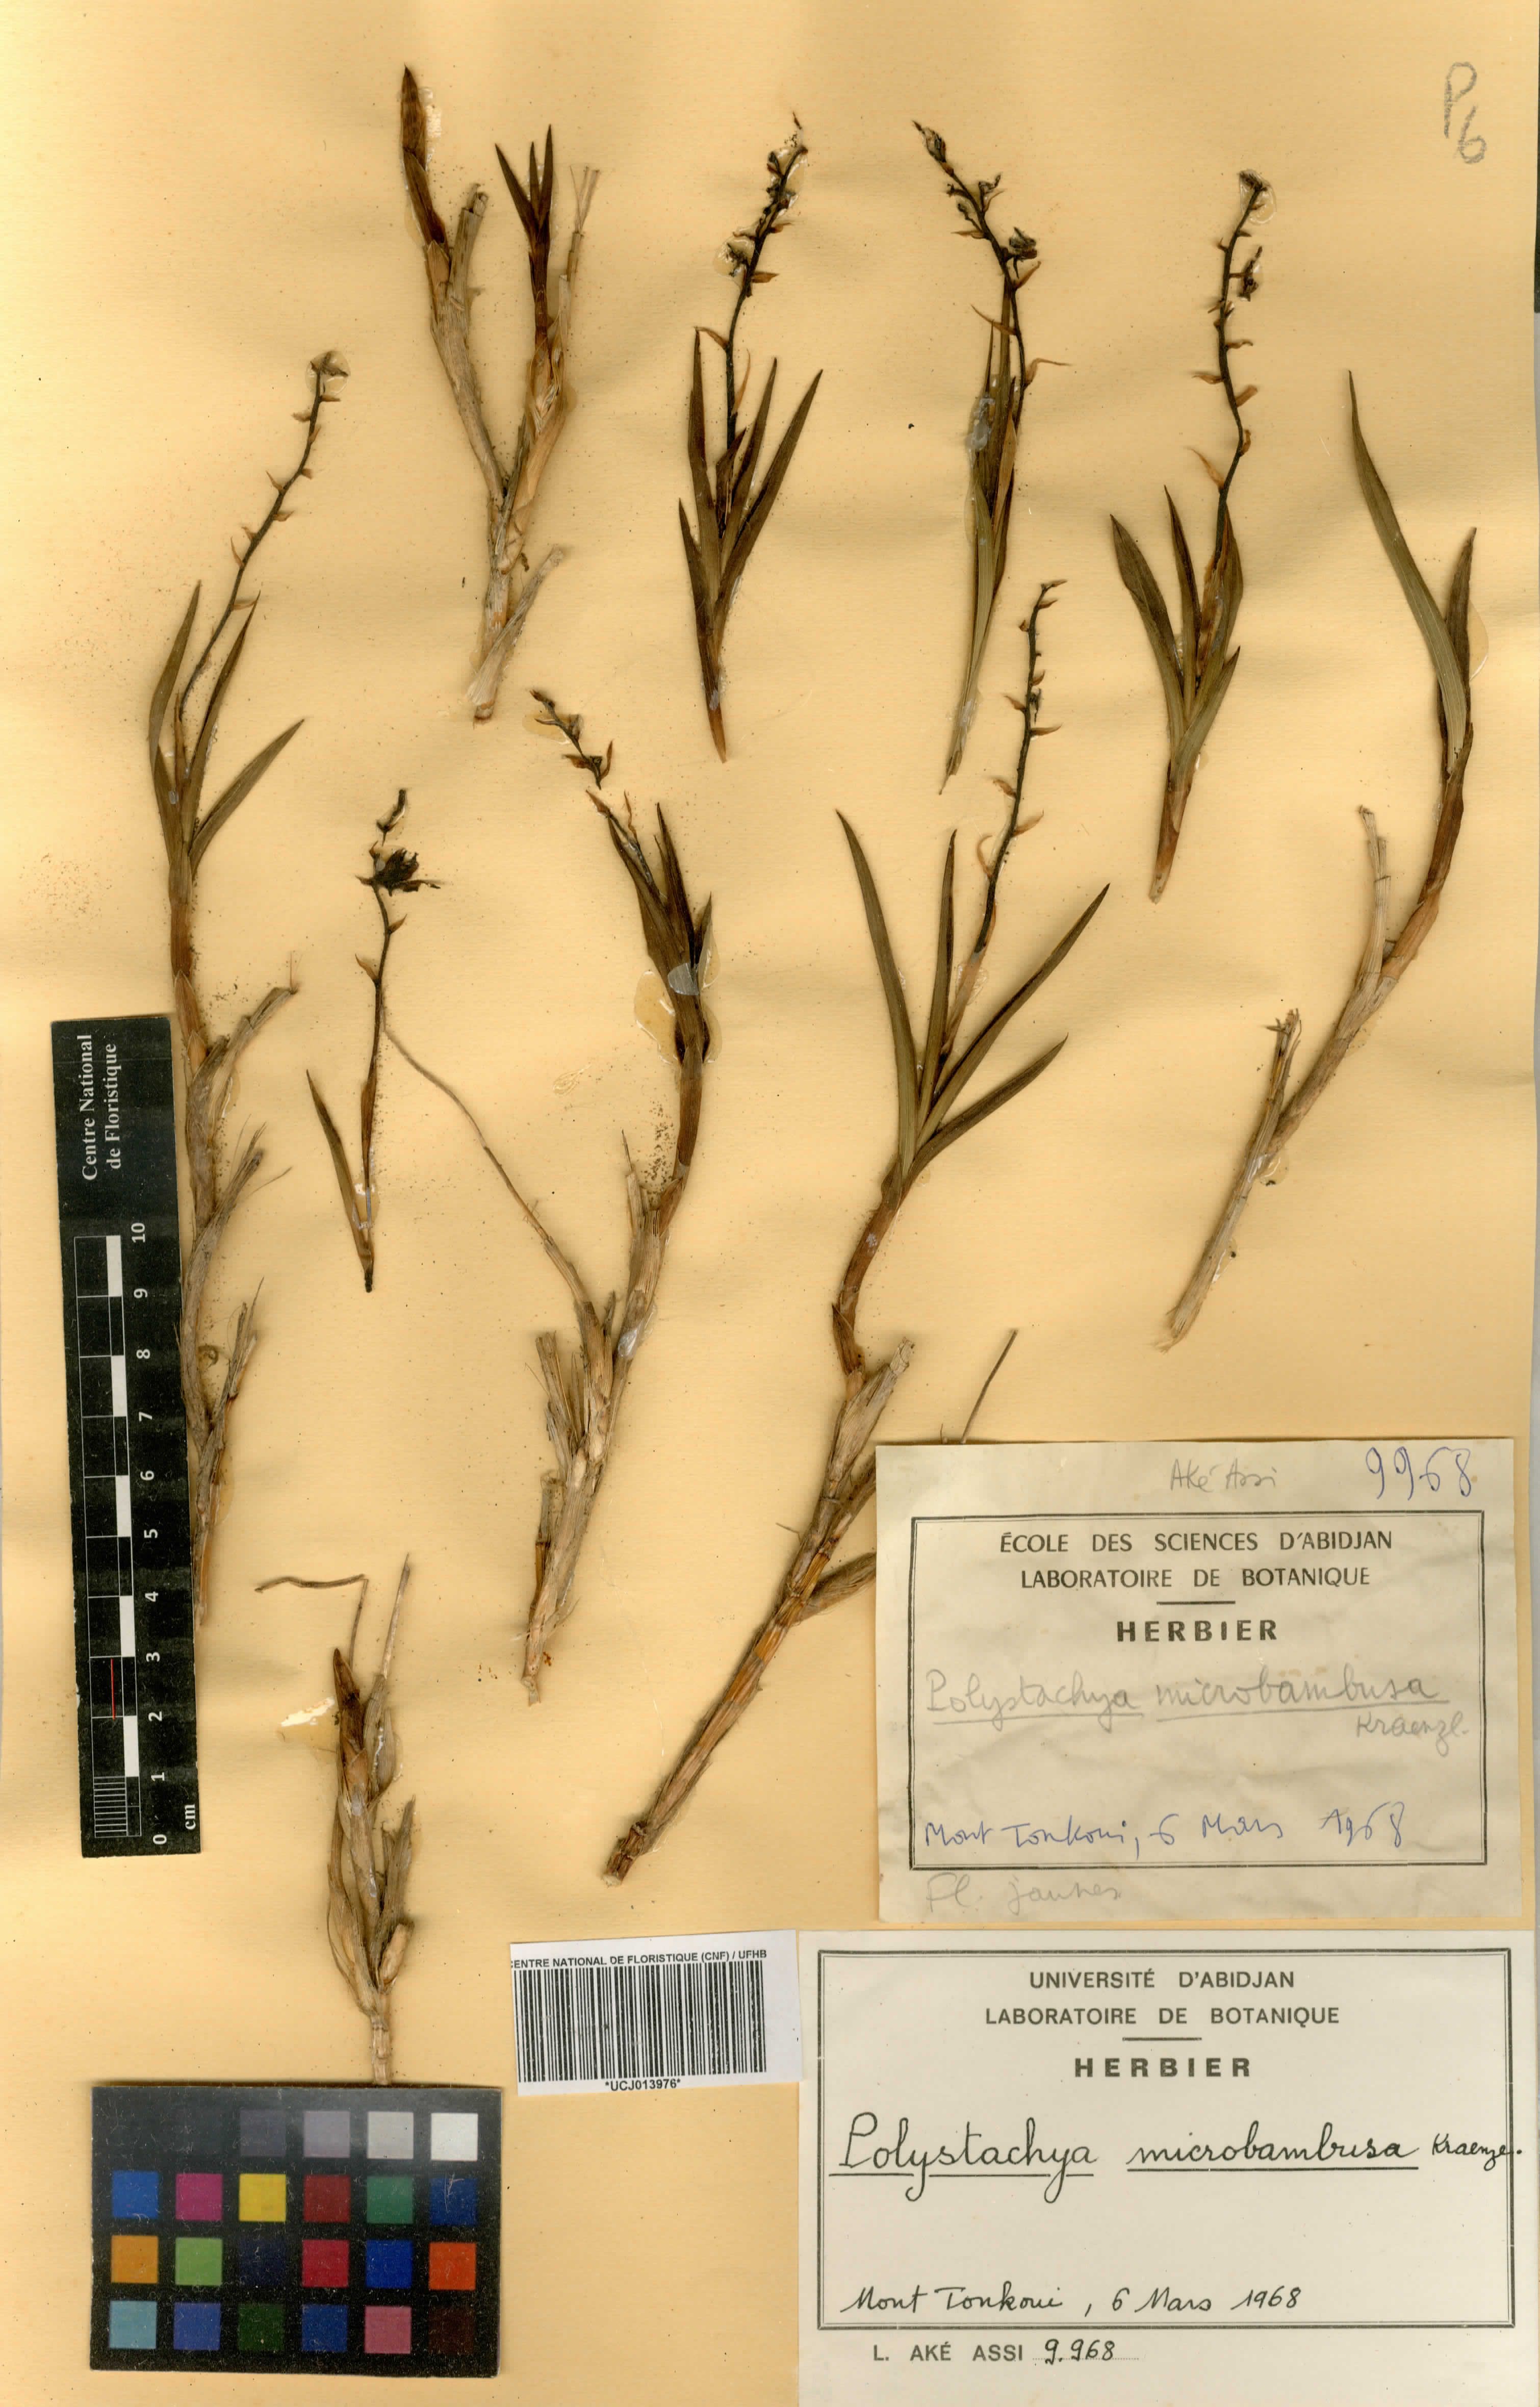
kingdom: Plantae
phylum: Tracheophyta
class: Liliopsida
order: Asparagales
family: Orchidaceae
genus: Polystachya
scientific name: Polystachya microbambusa
